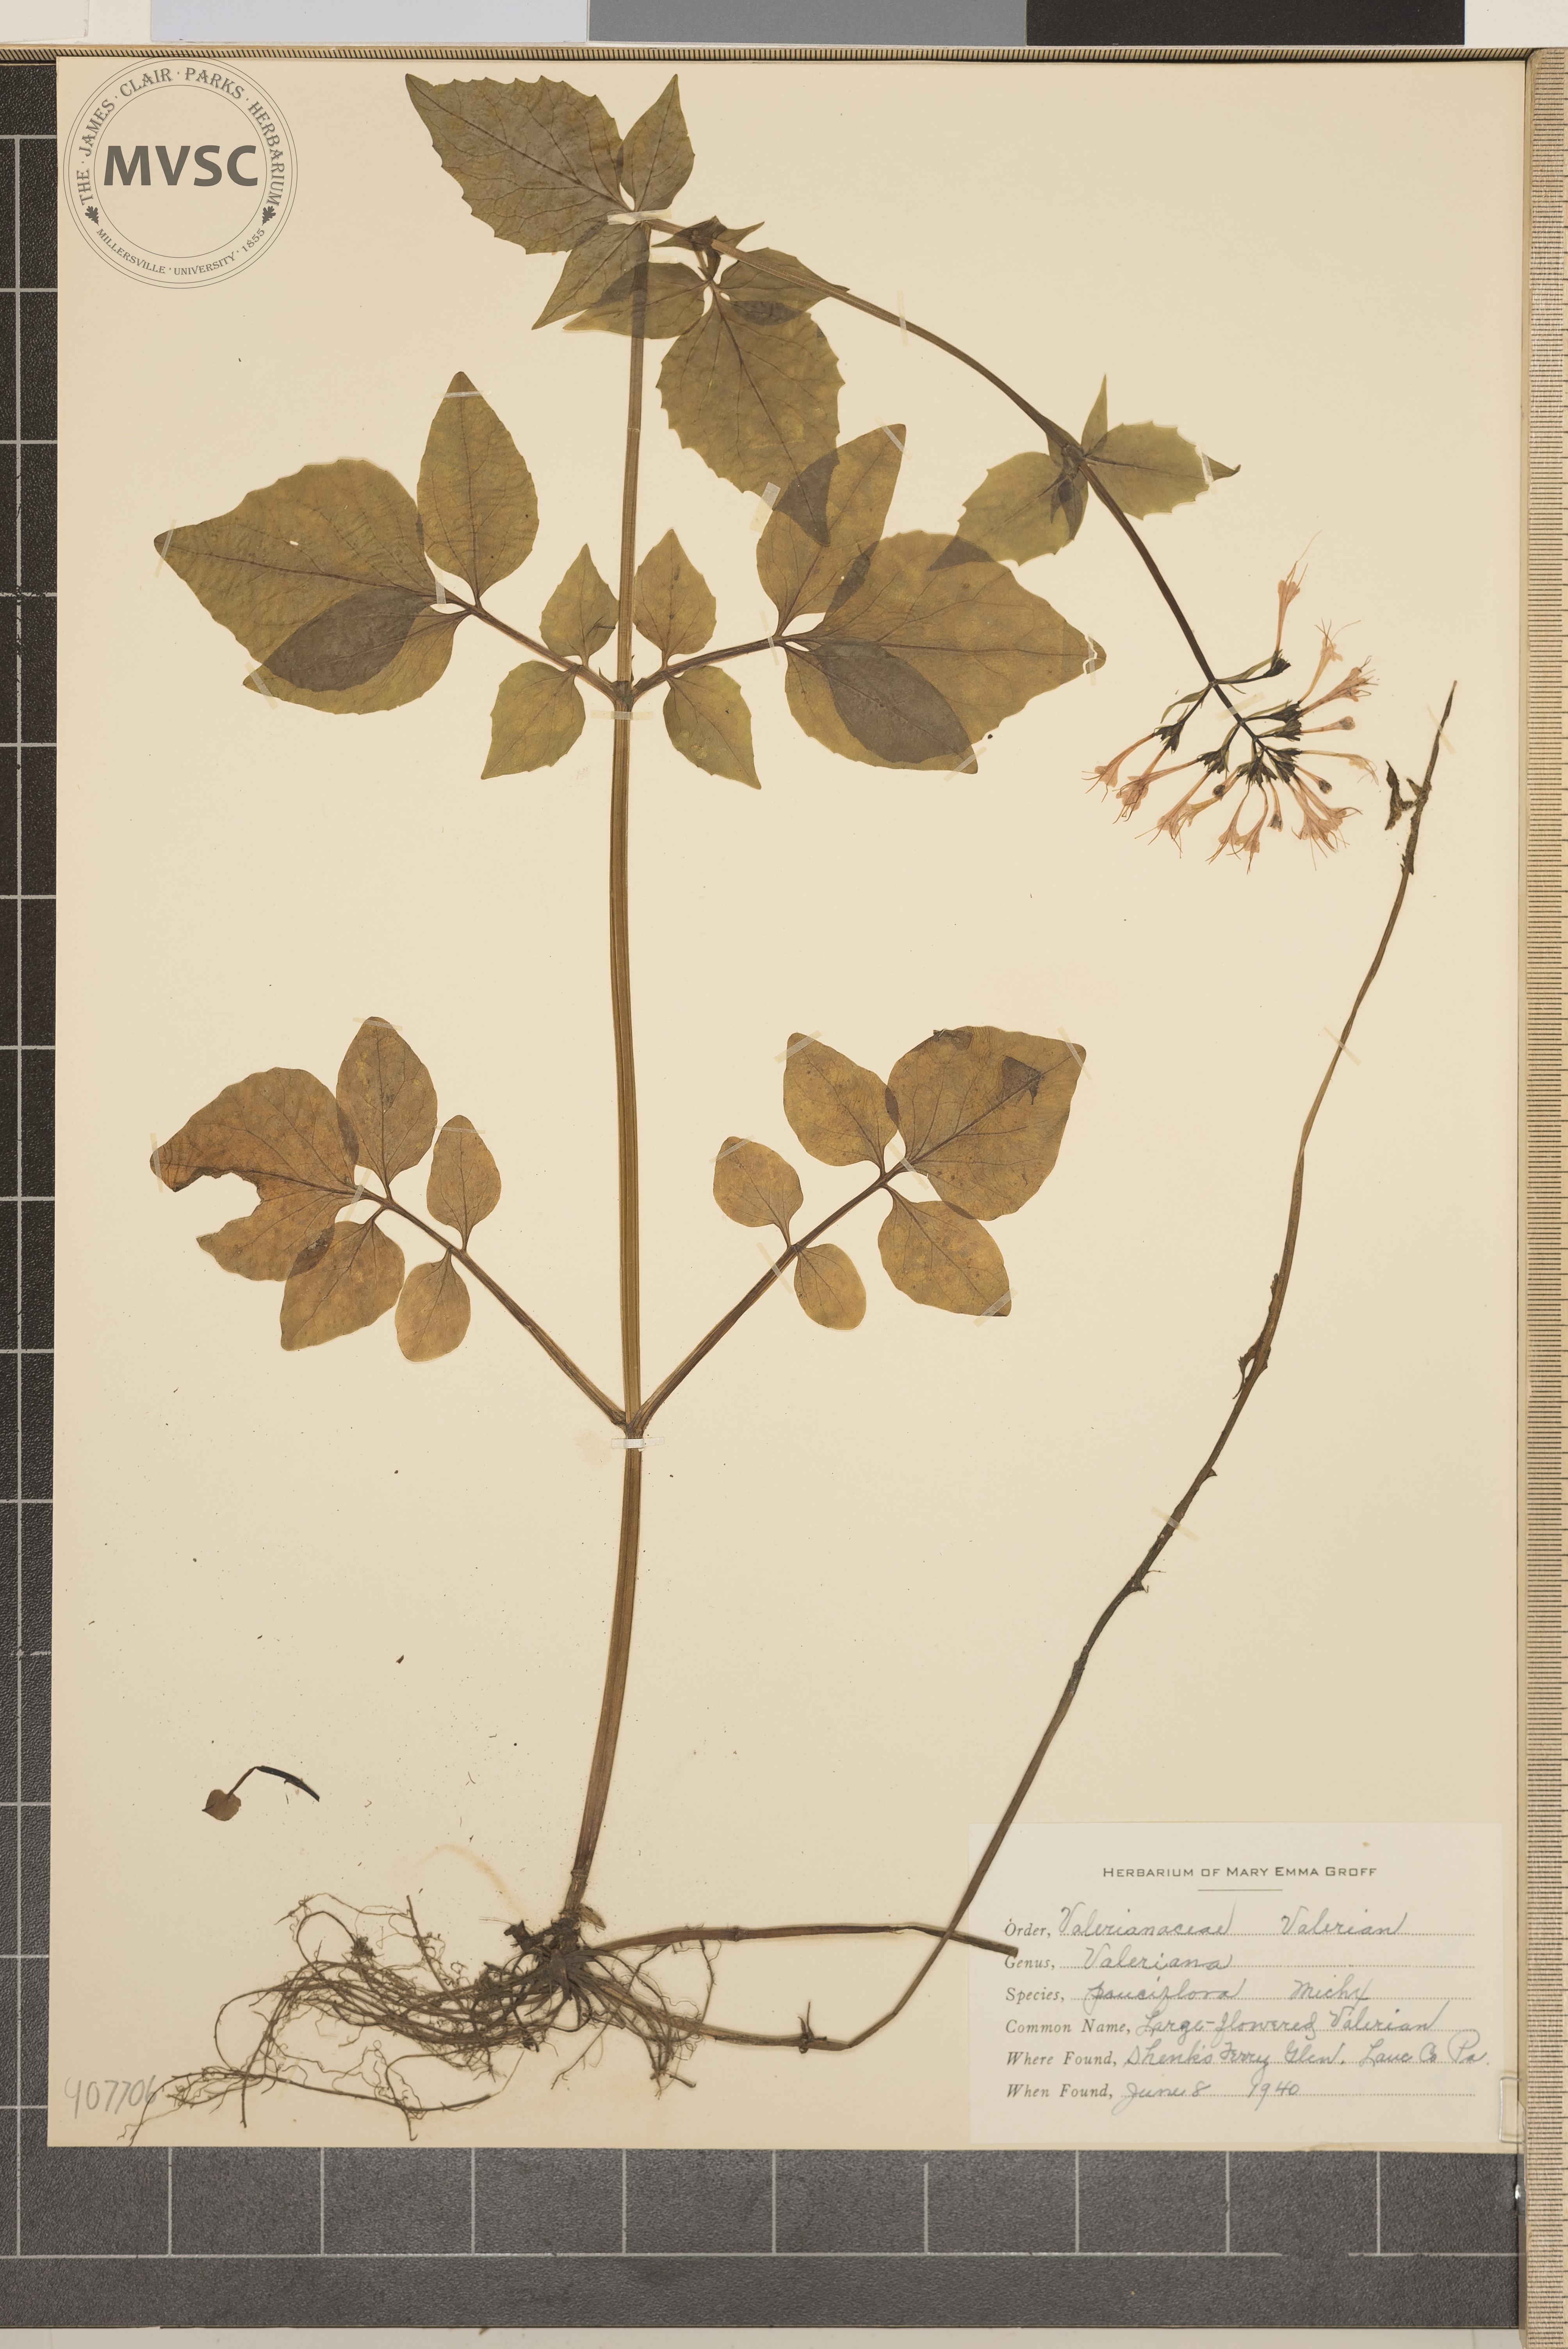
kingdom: Plantae
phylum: Tracheophyta
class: Magnoliopsida
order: Dipsacales
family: Caprifoliaceae
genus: Valeriana
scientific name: Valeriana pauciflora
